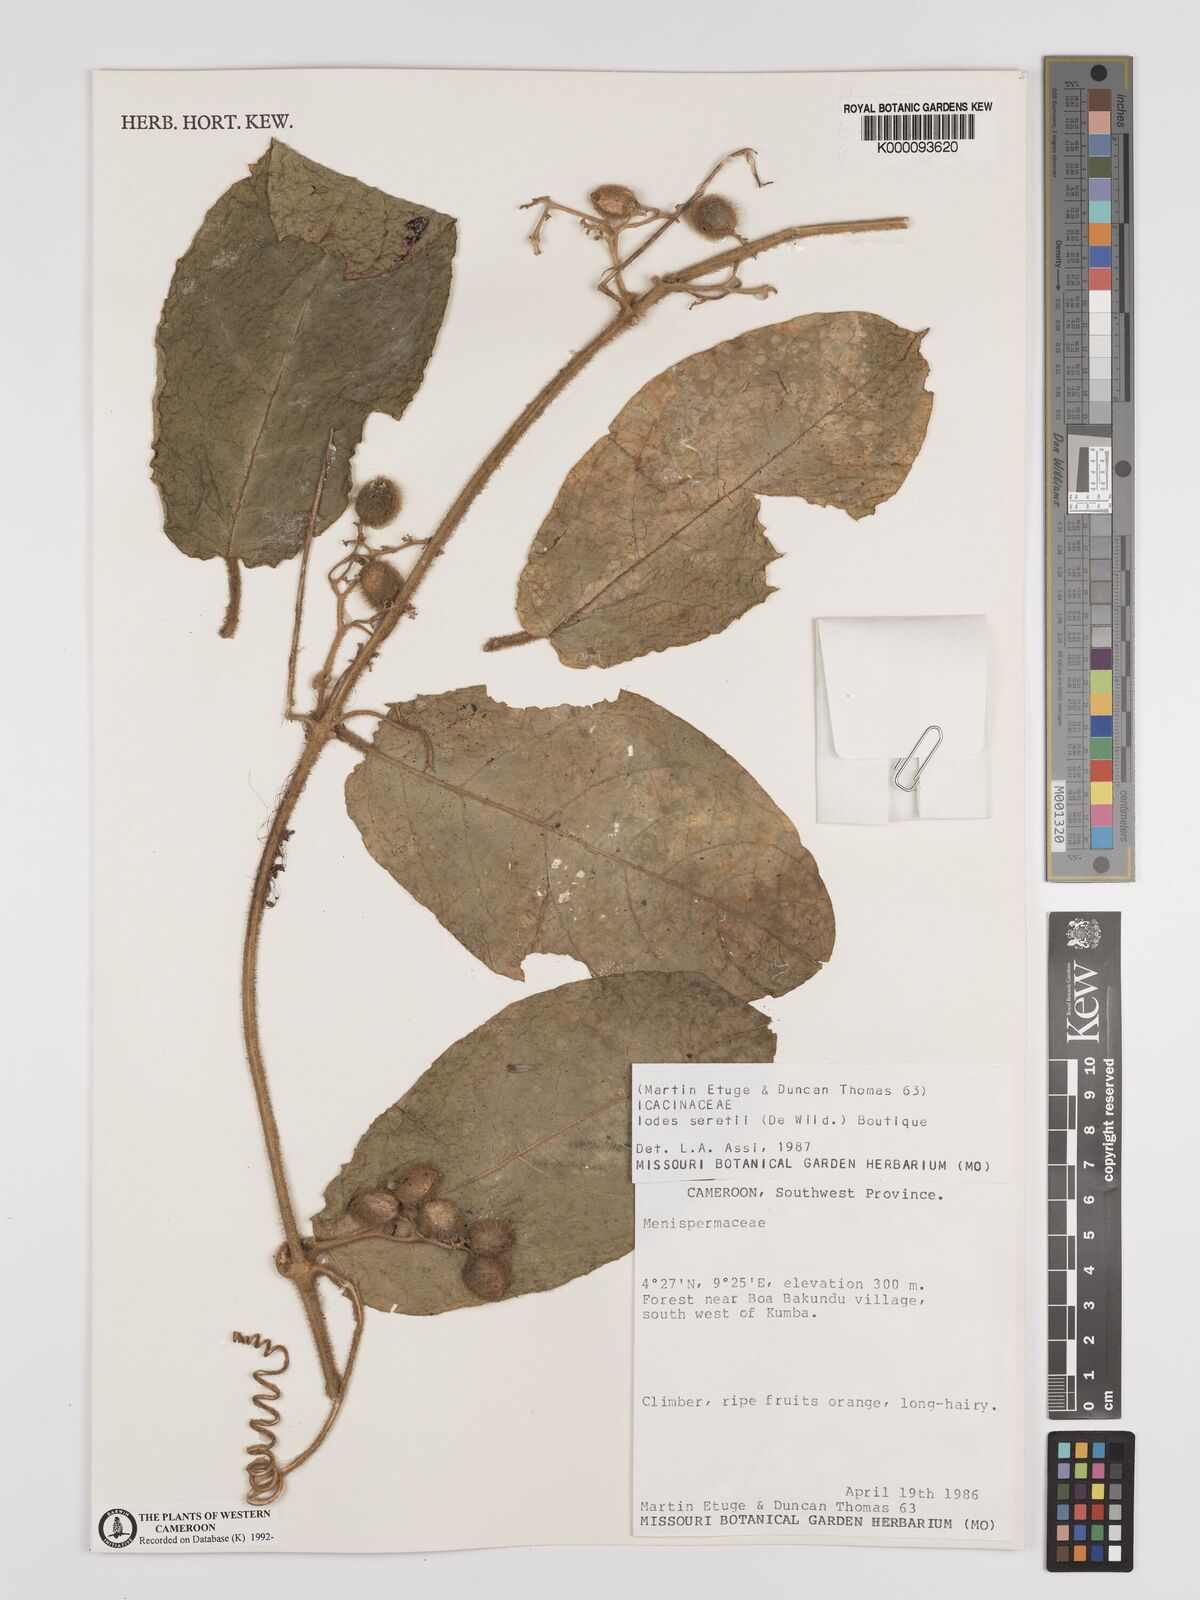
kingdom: Plantae
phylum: Tracheophyta
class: Magnoliopsida
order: Icacinales
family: Icacinaceae
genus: Iodes
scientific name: Iodes seretii
